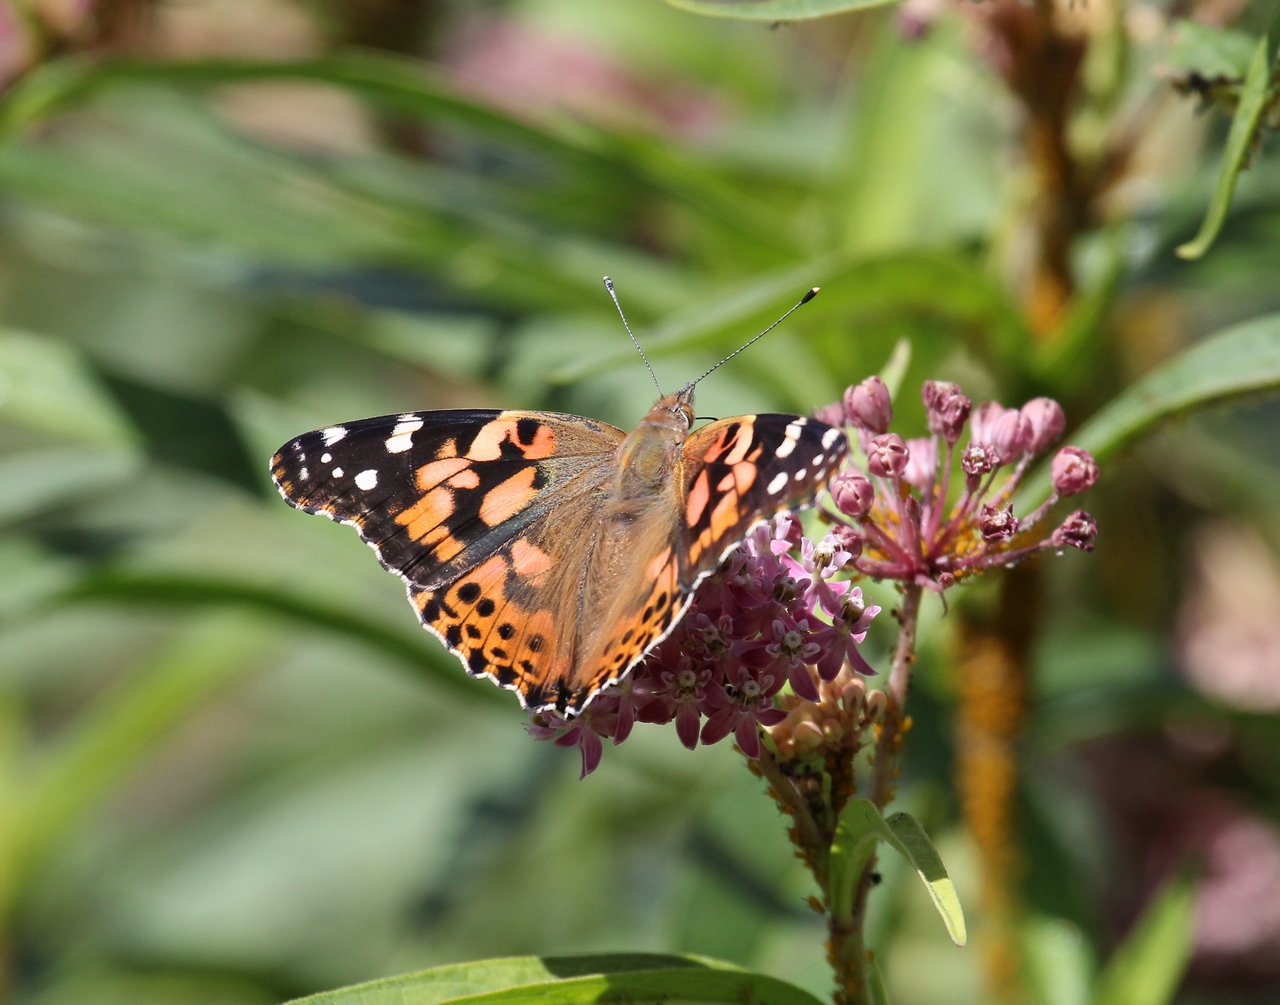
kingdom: Animalia
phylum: Arthropoda
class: Insecta
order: Lepidoptera
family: Nymphalidae
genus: Vanessa
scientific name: Vanessa cardui
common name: Painted Lady
